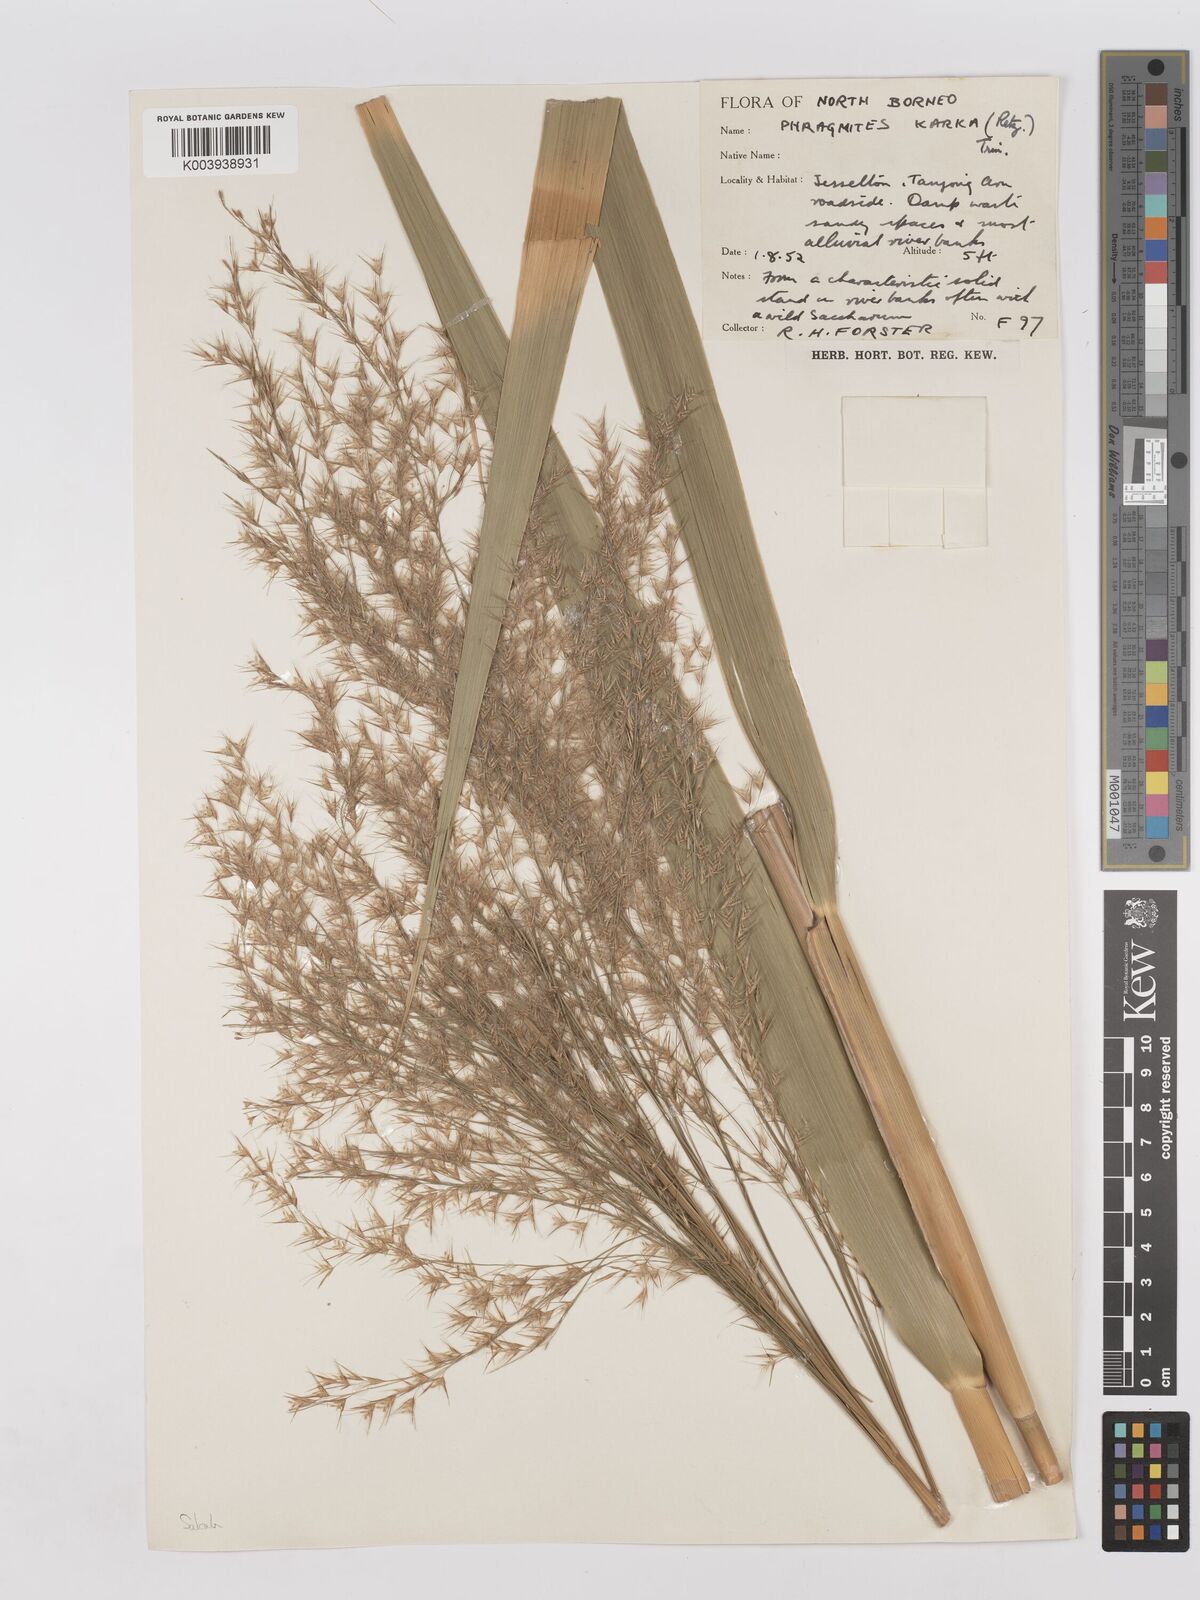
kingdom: Plantae
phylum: Tracheophyta
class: Liliopsida
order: Poales
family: Poaceae
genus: Phragmites
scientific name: Phragmites karka
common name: Tropical reed
